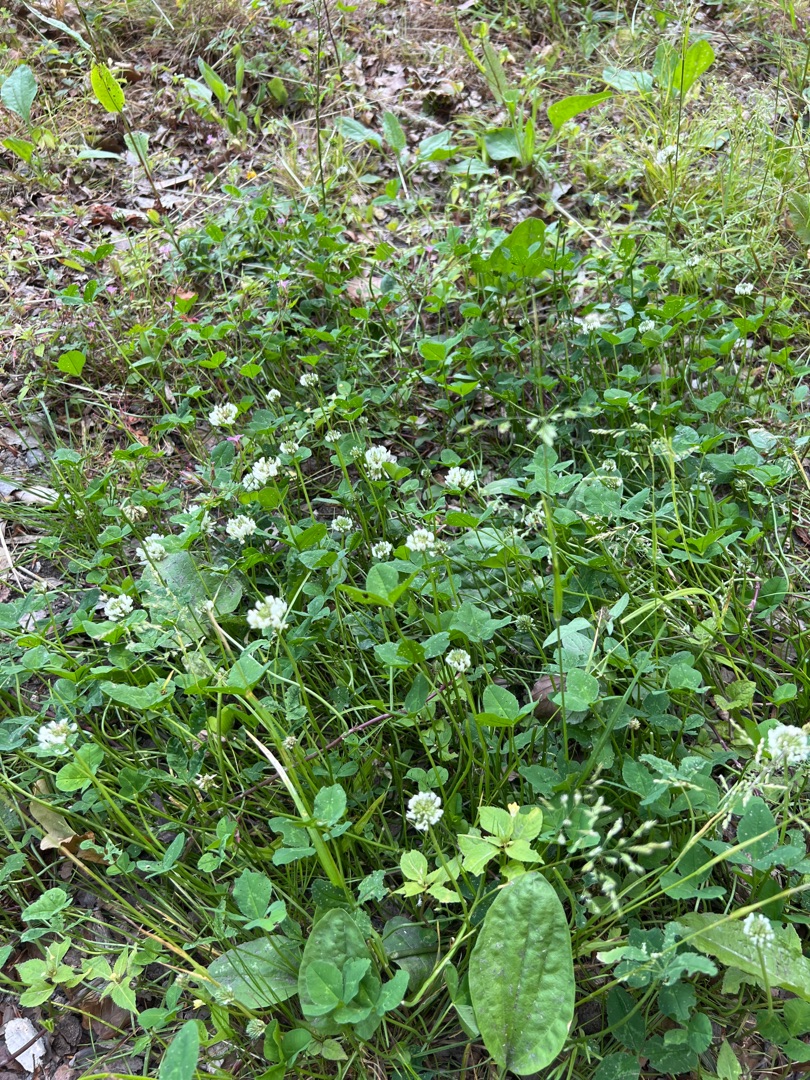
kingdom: Plantae
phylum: Tracheophyta
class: Magnoliopsida
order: Fabales
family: Fabaceae
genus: Trifolium
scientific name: Trifolium repens
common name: Hvid-kløver
